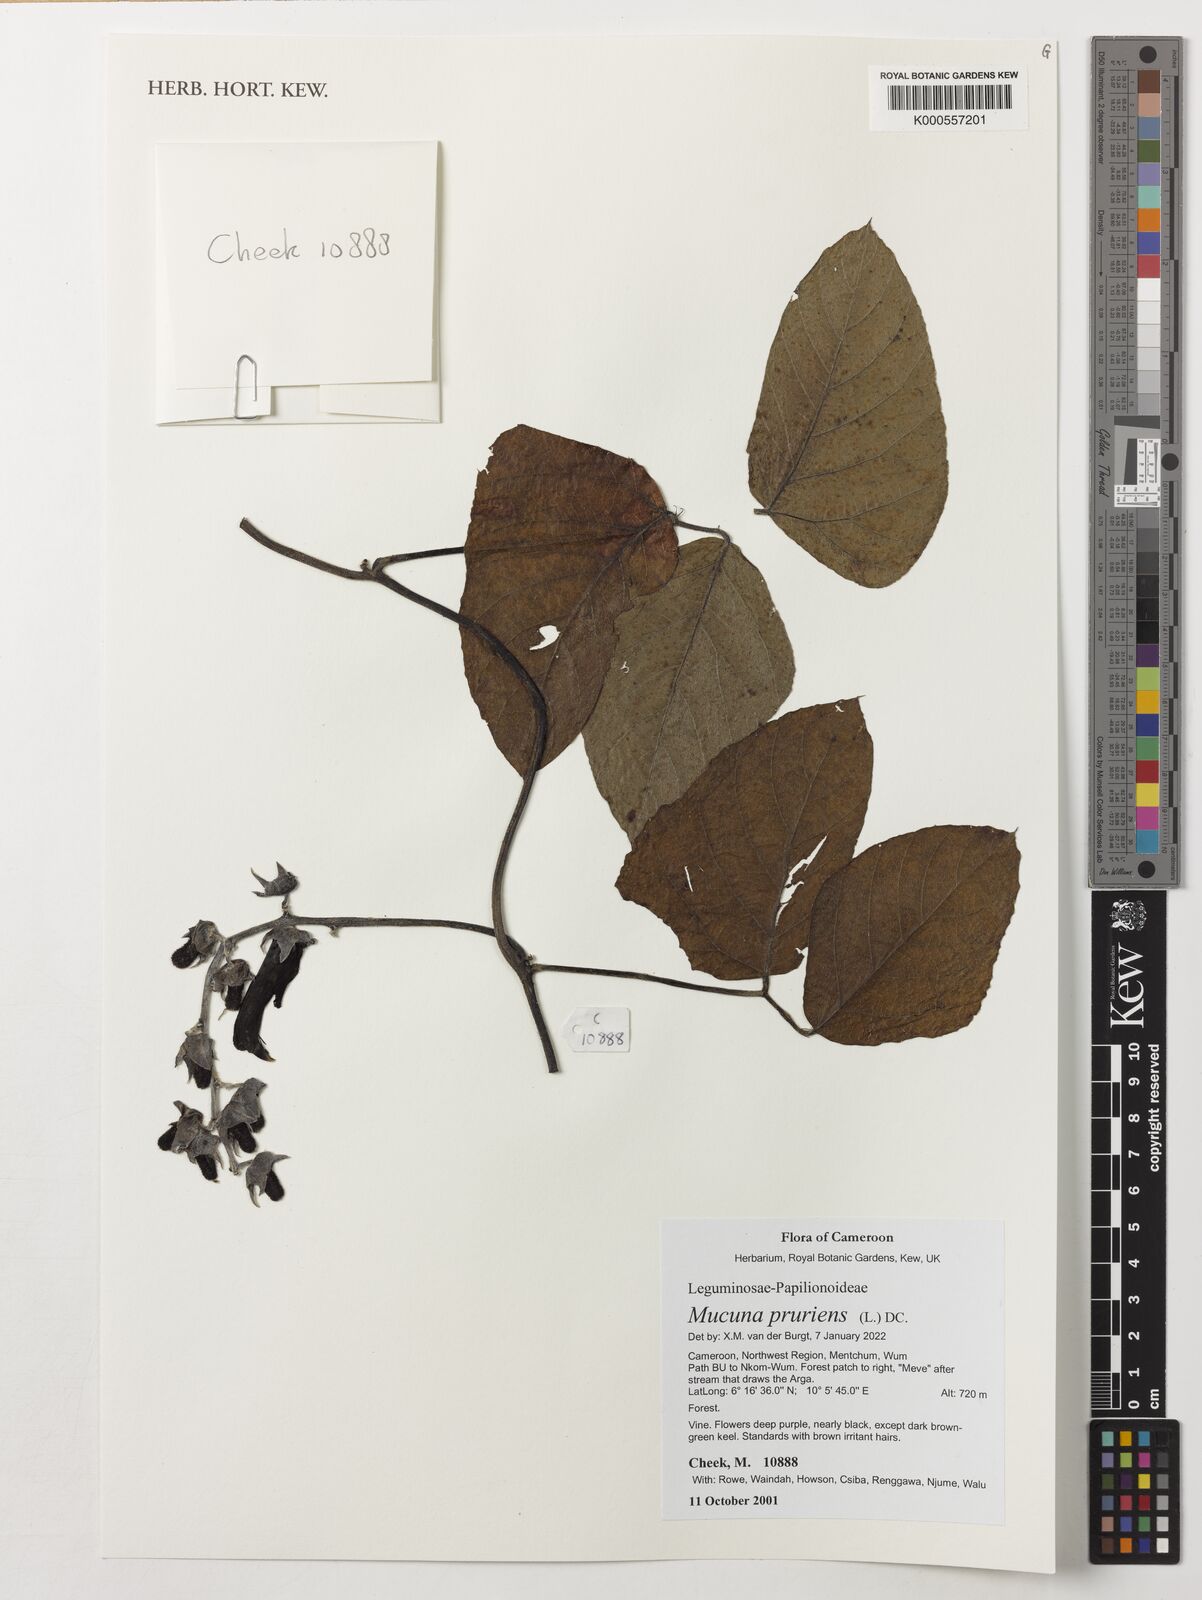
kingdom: Plantae
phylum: Tracheophyta
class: Magnoliopsida
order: Fabales
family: Fabaceae
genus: Mucuna
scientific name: Mucuna pruriens
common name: Cow-itch
